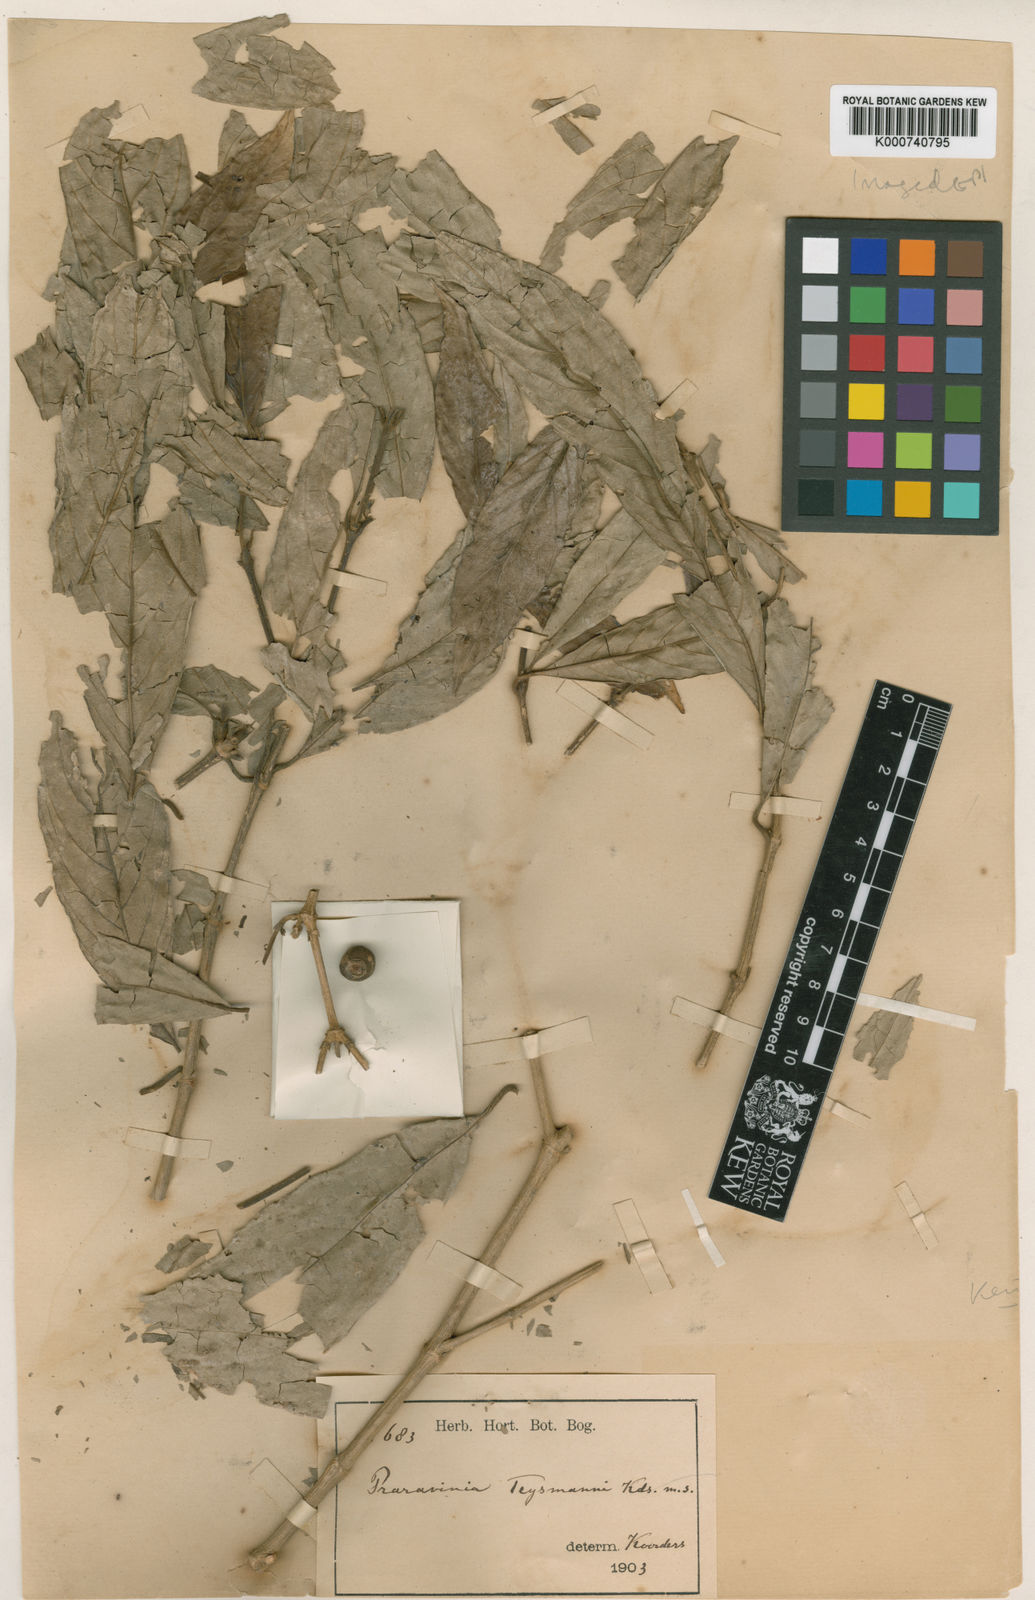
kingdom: Plantae
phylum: Tracheophyta
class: Magnoliopsida
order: Gentianales
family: Rubiaceae
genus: Praravinia
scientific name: Praravinia teysmannii
